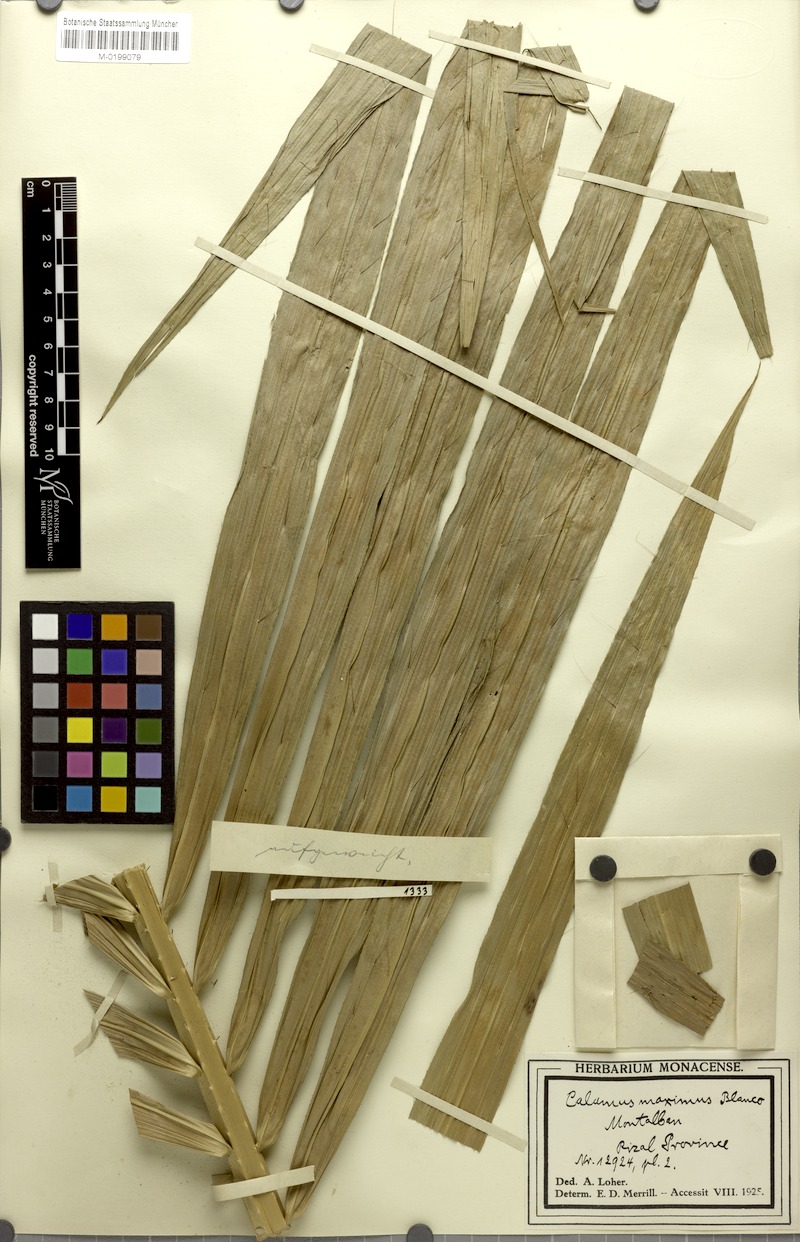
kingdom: Plantae
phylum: Tracheophyta
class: Liliopsida
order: Arecales
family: Arecaceae
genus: Calamus
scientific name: Calamus zollingeri
